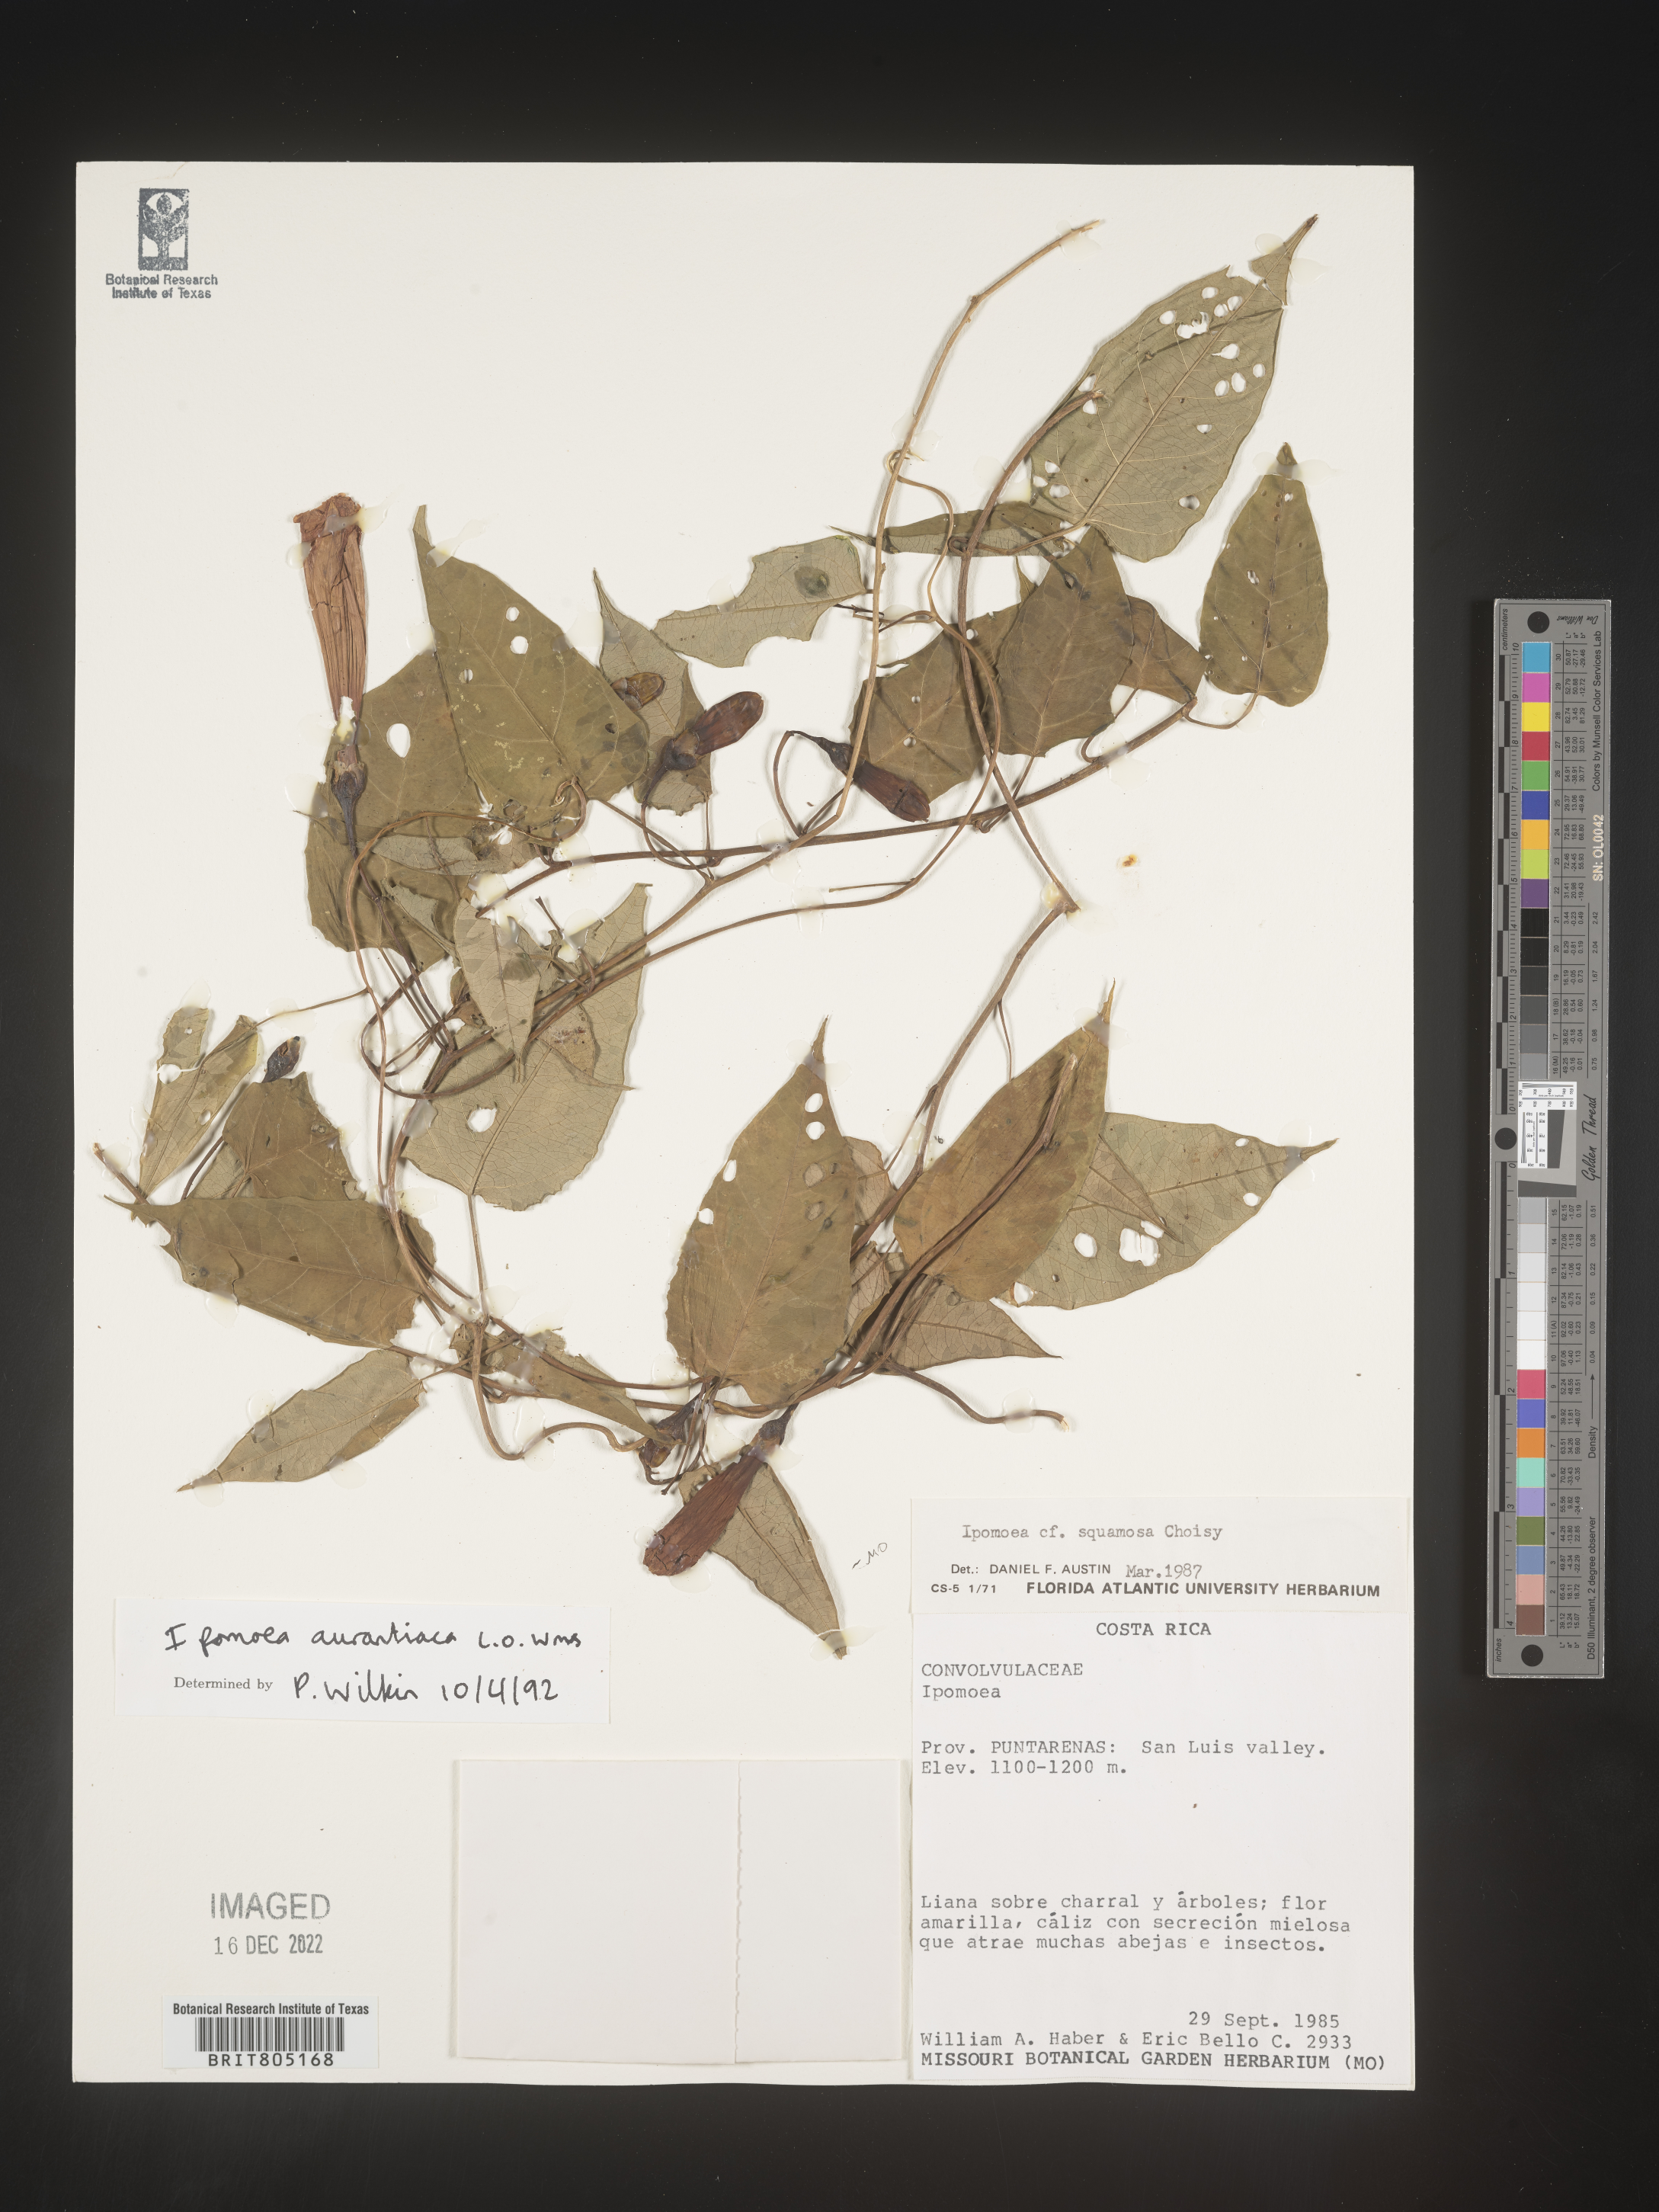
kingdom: Plantae
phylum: Tracheophyta
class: Magnoliopsida
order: Solanales
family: Convolvulaceae
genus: Ipomoea
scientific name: Ipomoea
